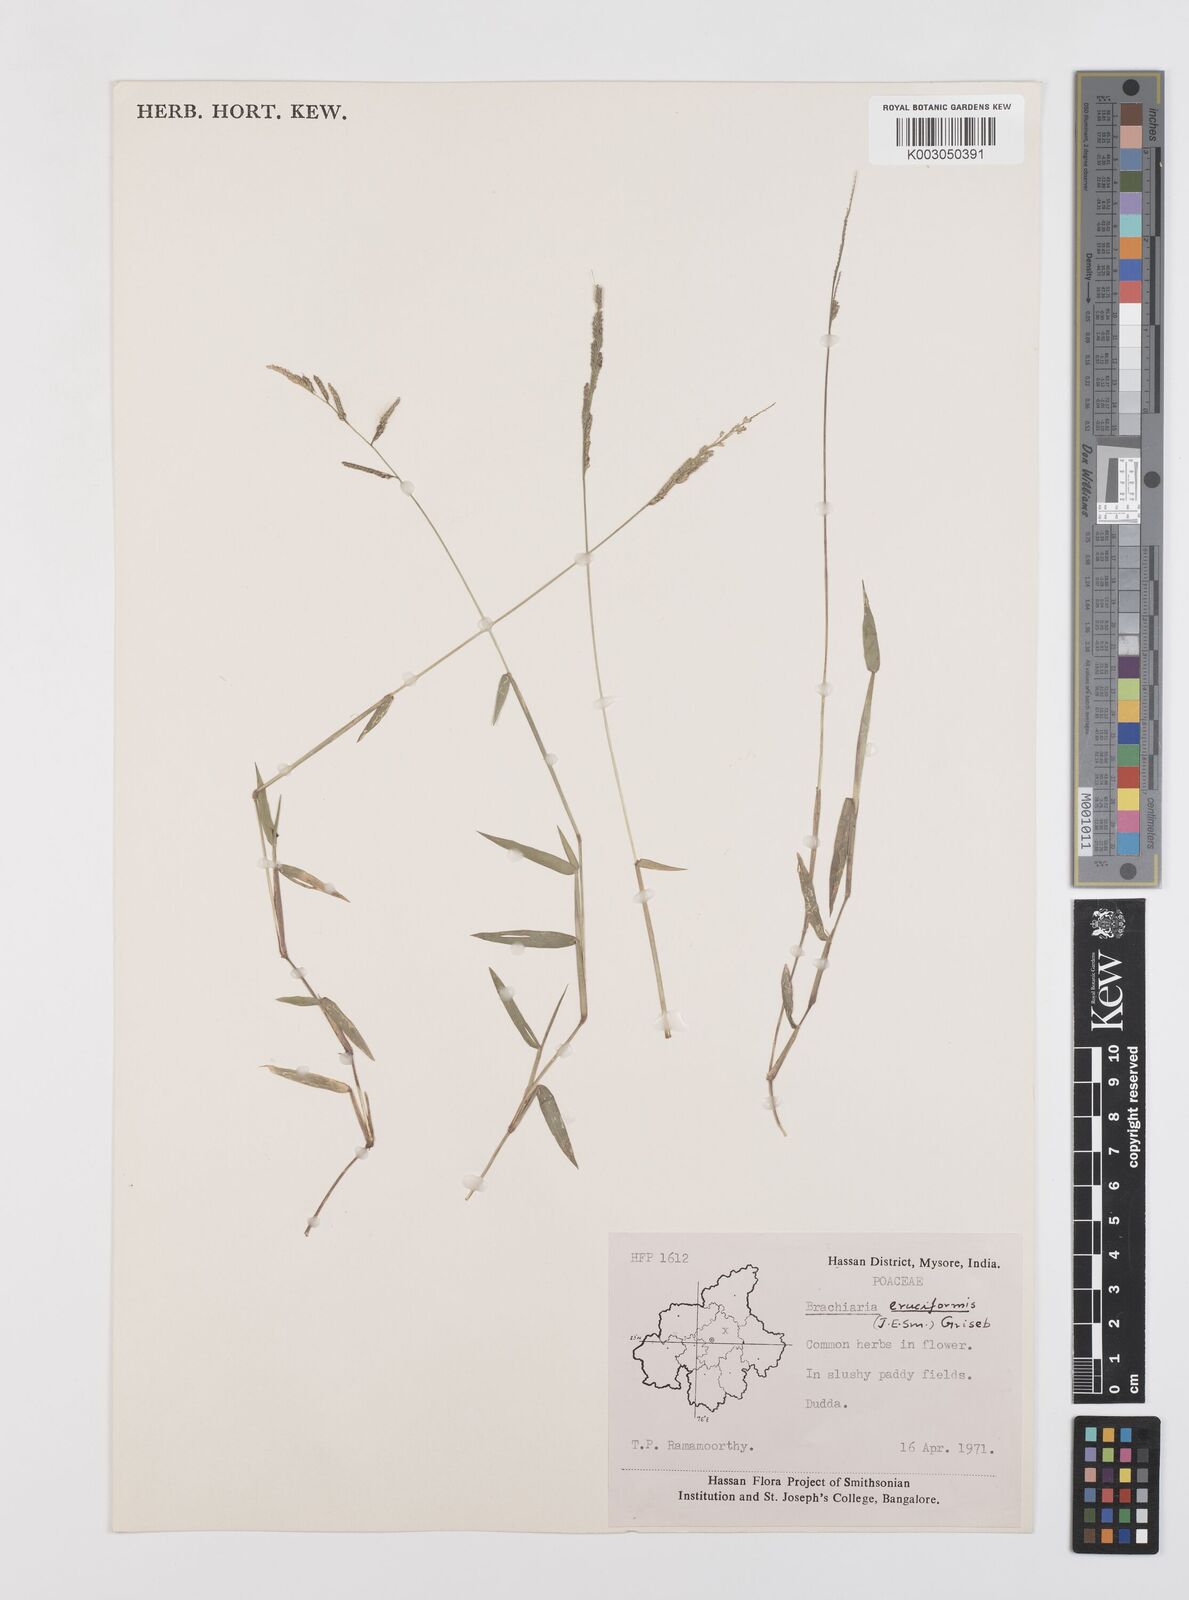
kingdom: Plantae
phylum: Tracheophyta
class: Liliopsida
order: Poales
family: Poaceae
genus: Moorochloa
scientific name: Moorochloa eruciformis
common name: Sweet signalgrass
